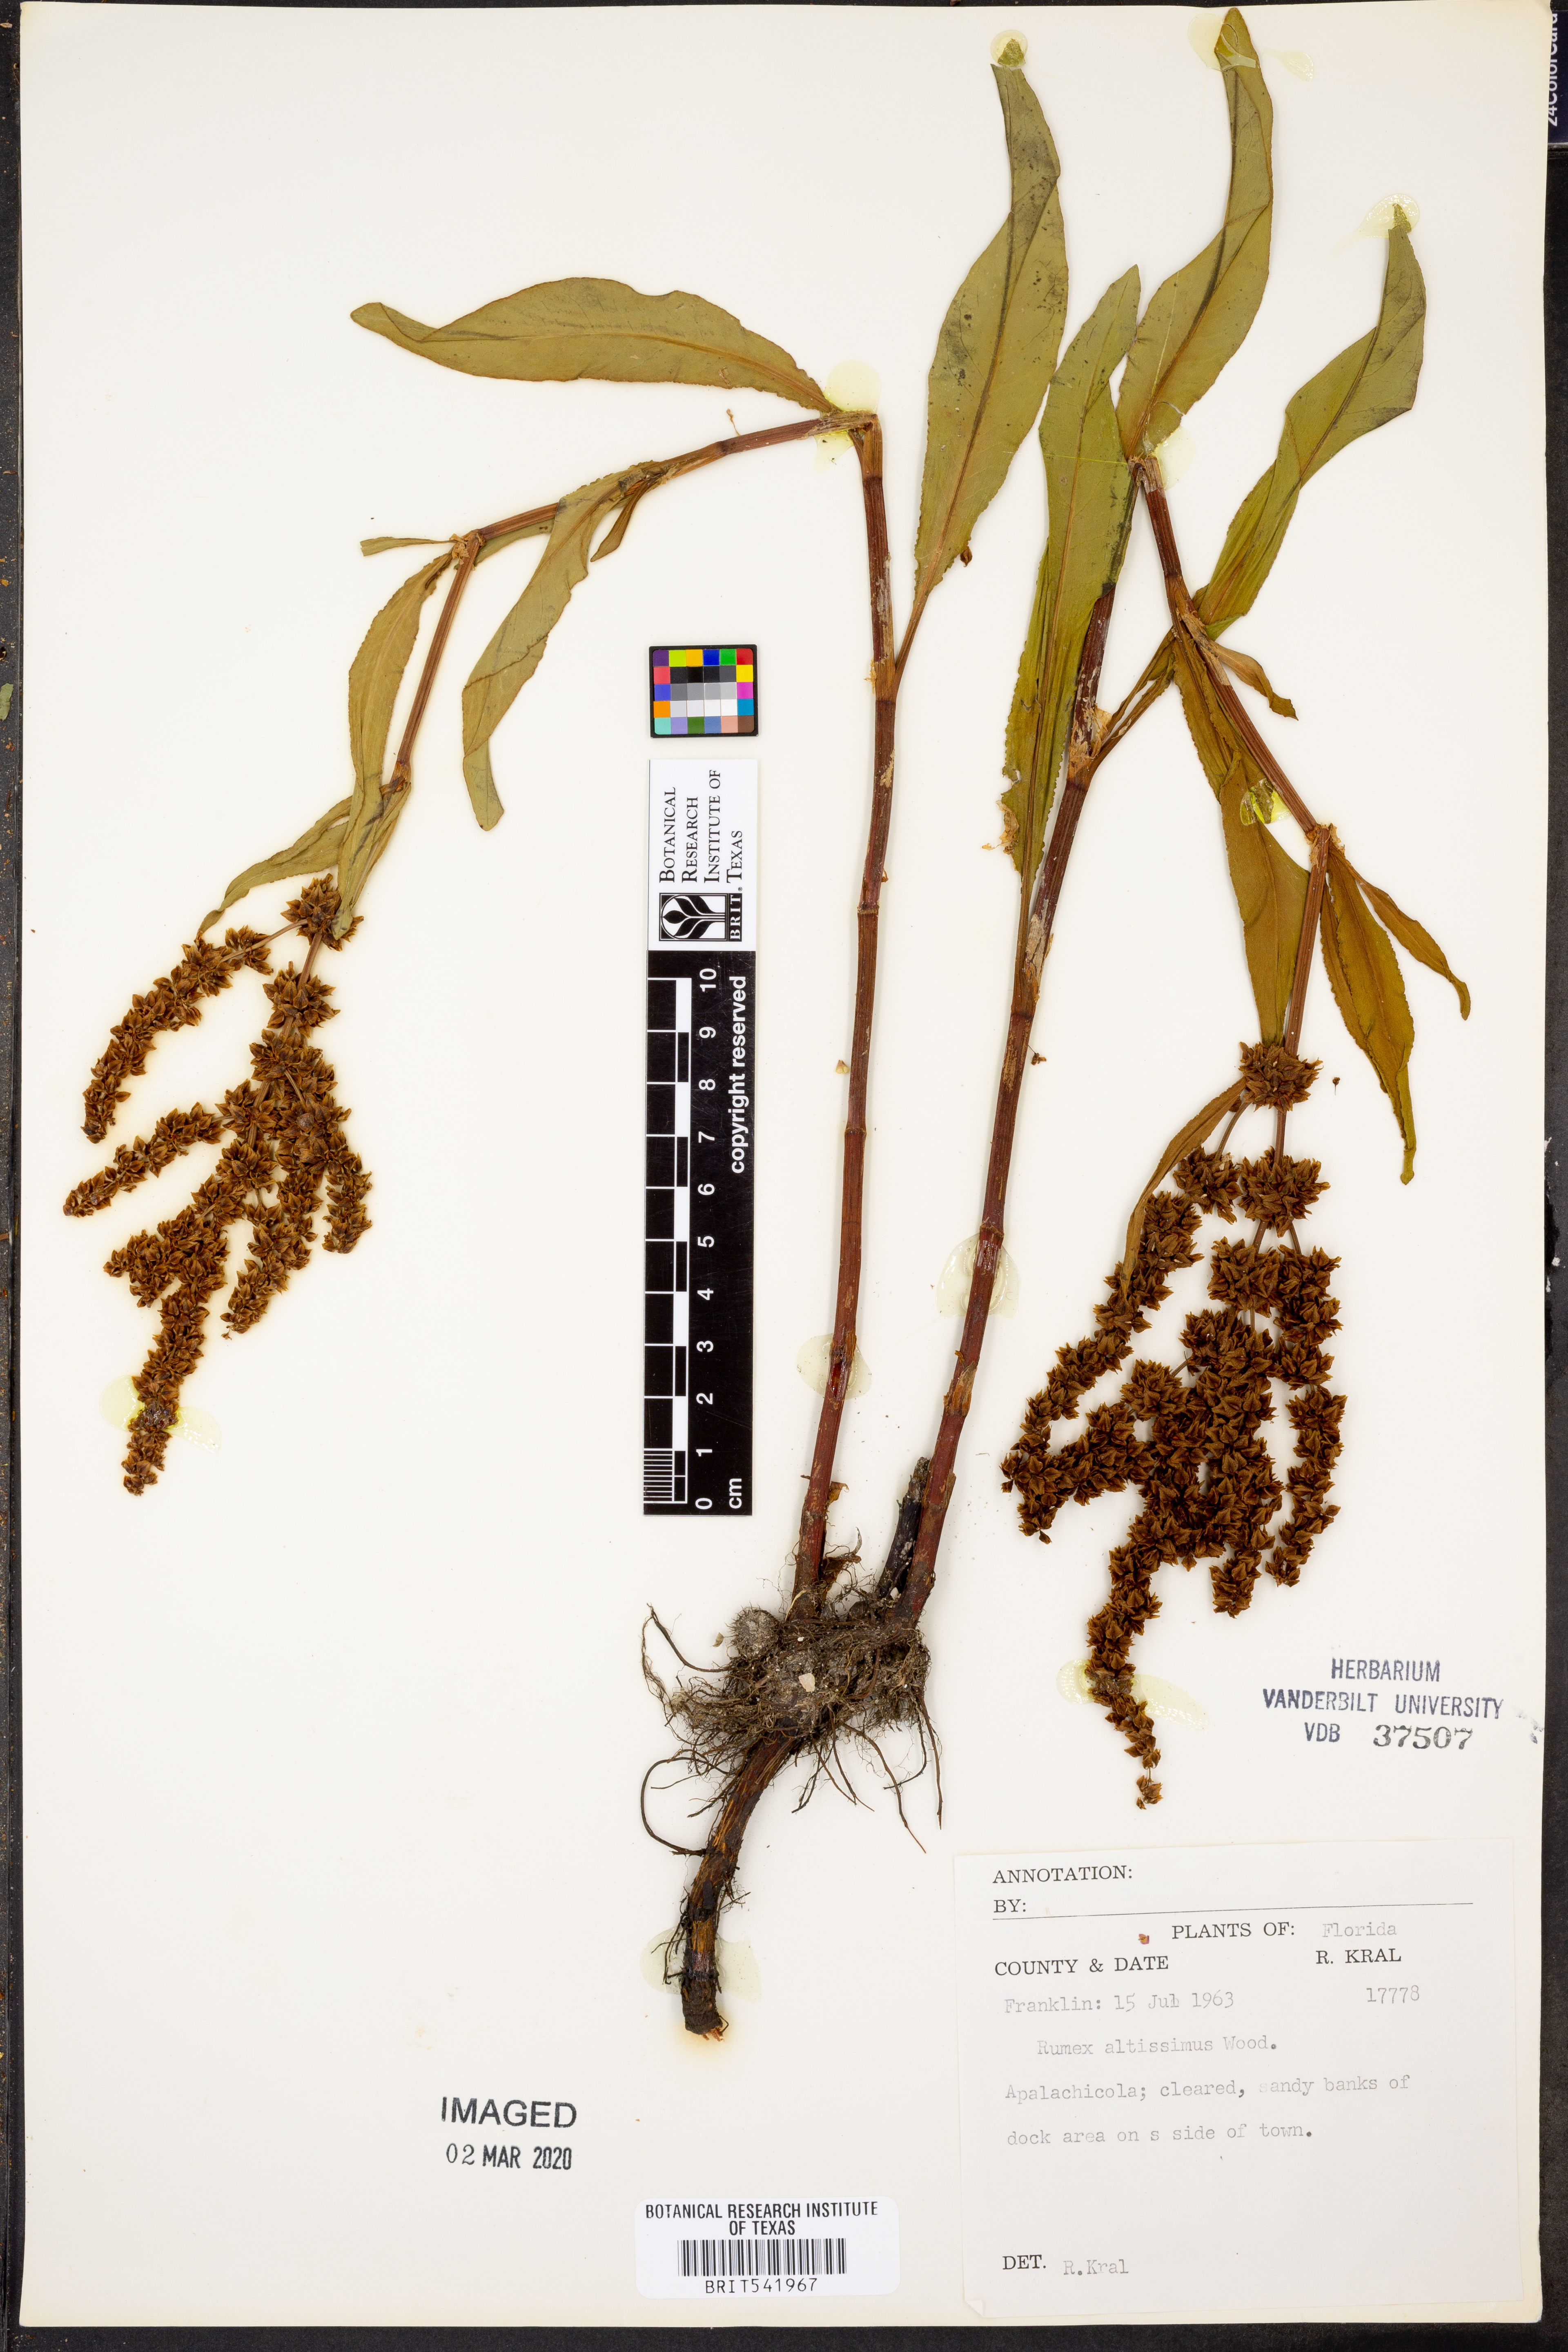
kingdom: Plantae
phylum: Tracheophyta
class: Magnoliopsida
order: Caryophyllales
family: Polygonaceae
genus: Rumex
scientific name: Rumex altissimus
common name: Smooth dock
